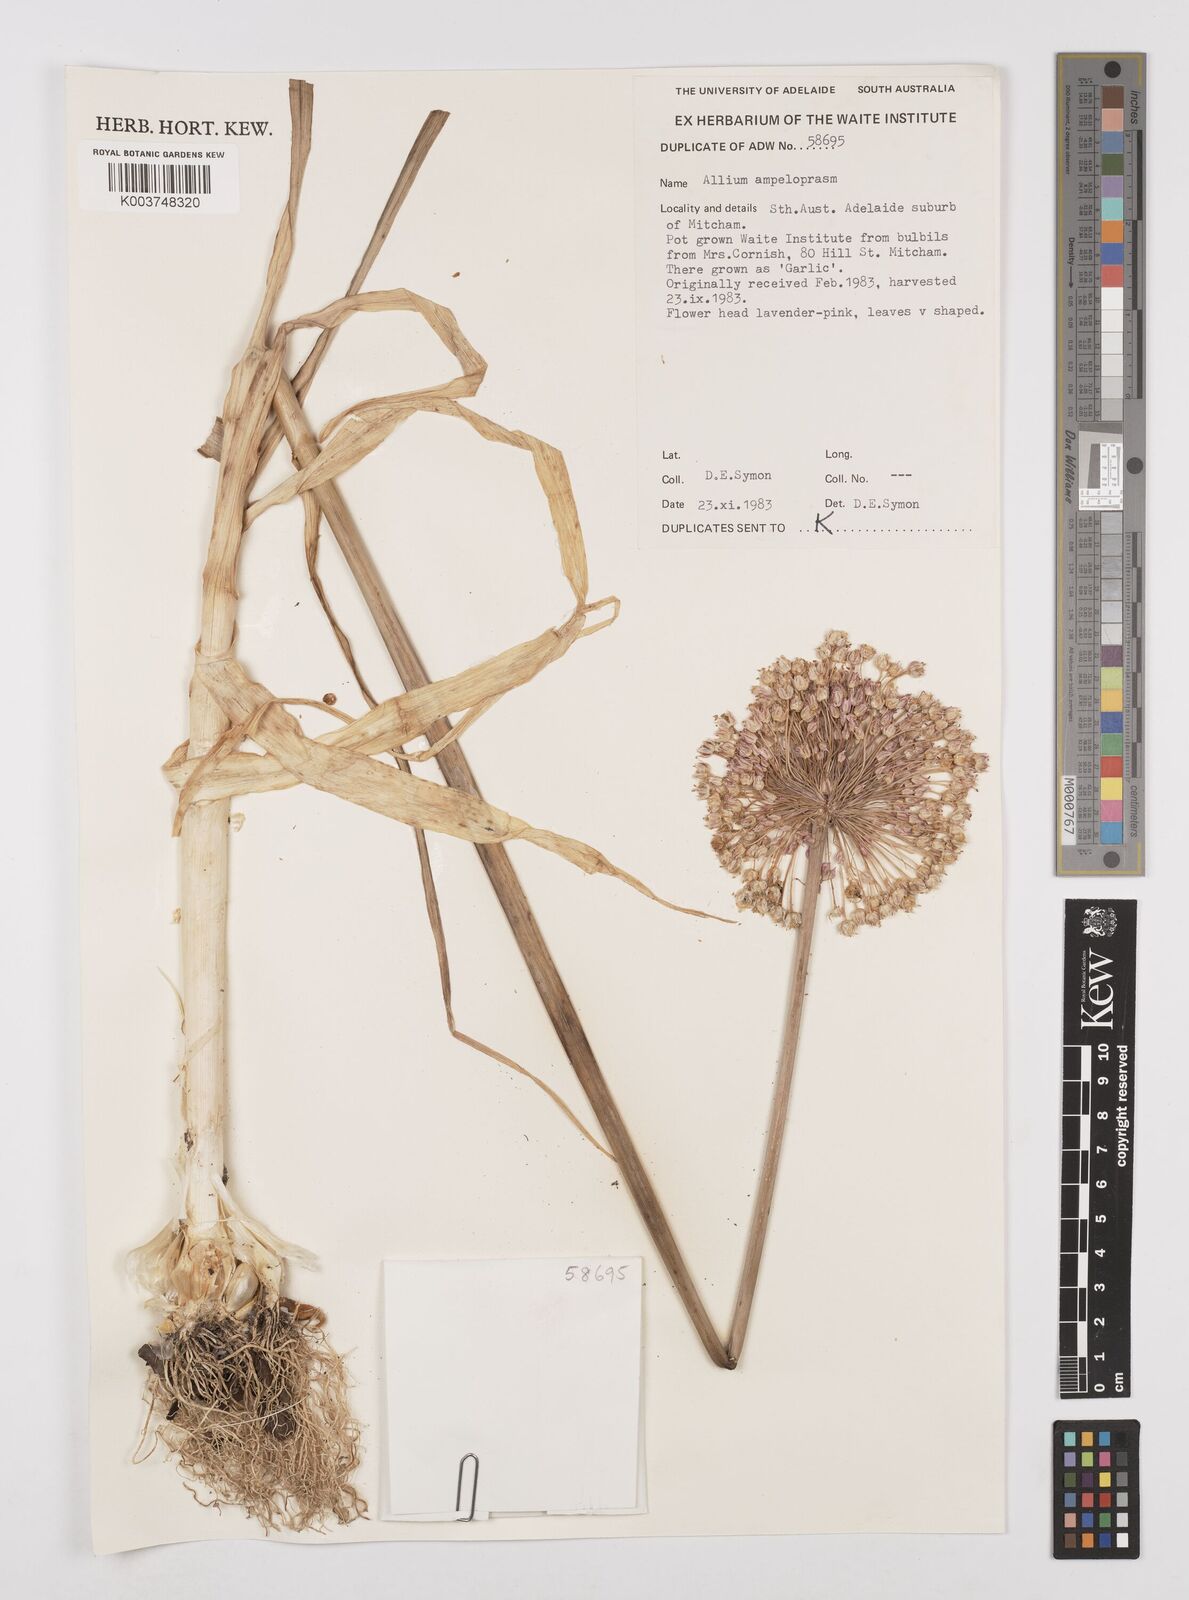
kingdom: Plantae
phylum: Tracheophyta
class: Liliopsida
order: Asparagales
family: Amaryllidaceae
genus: Allium
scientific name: Allium ampeloprasum
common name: Wild leek
